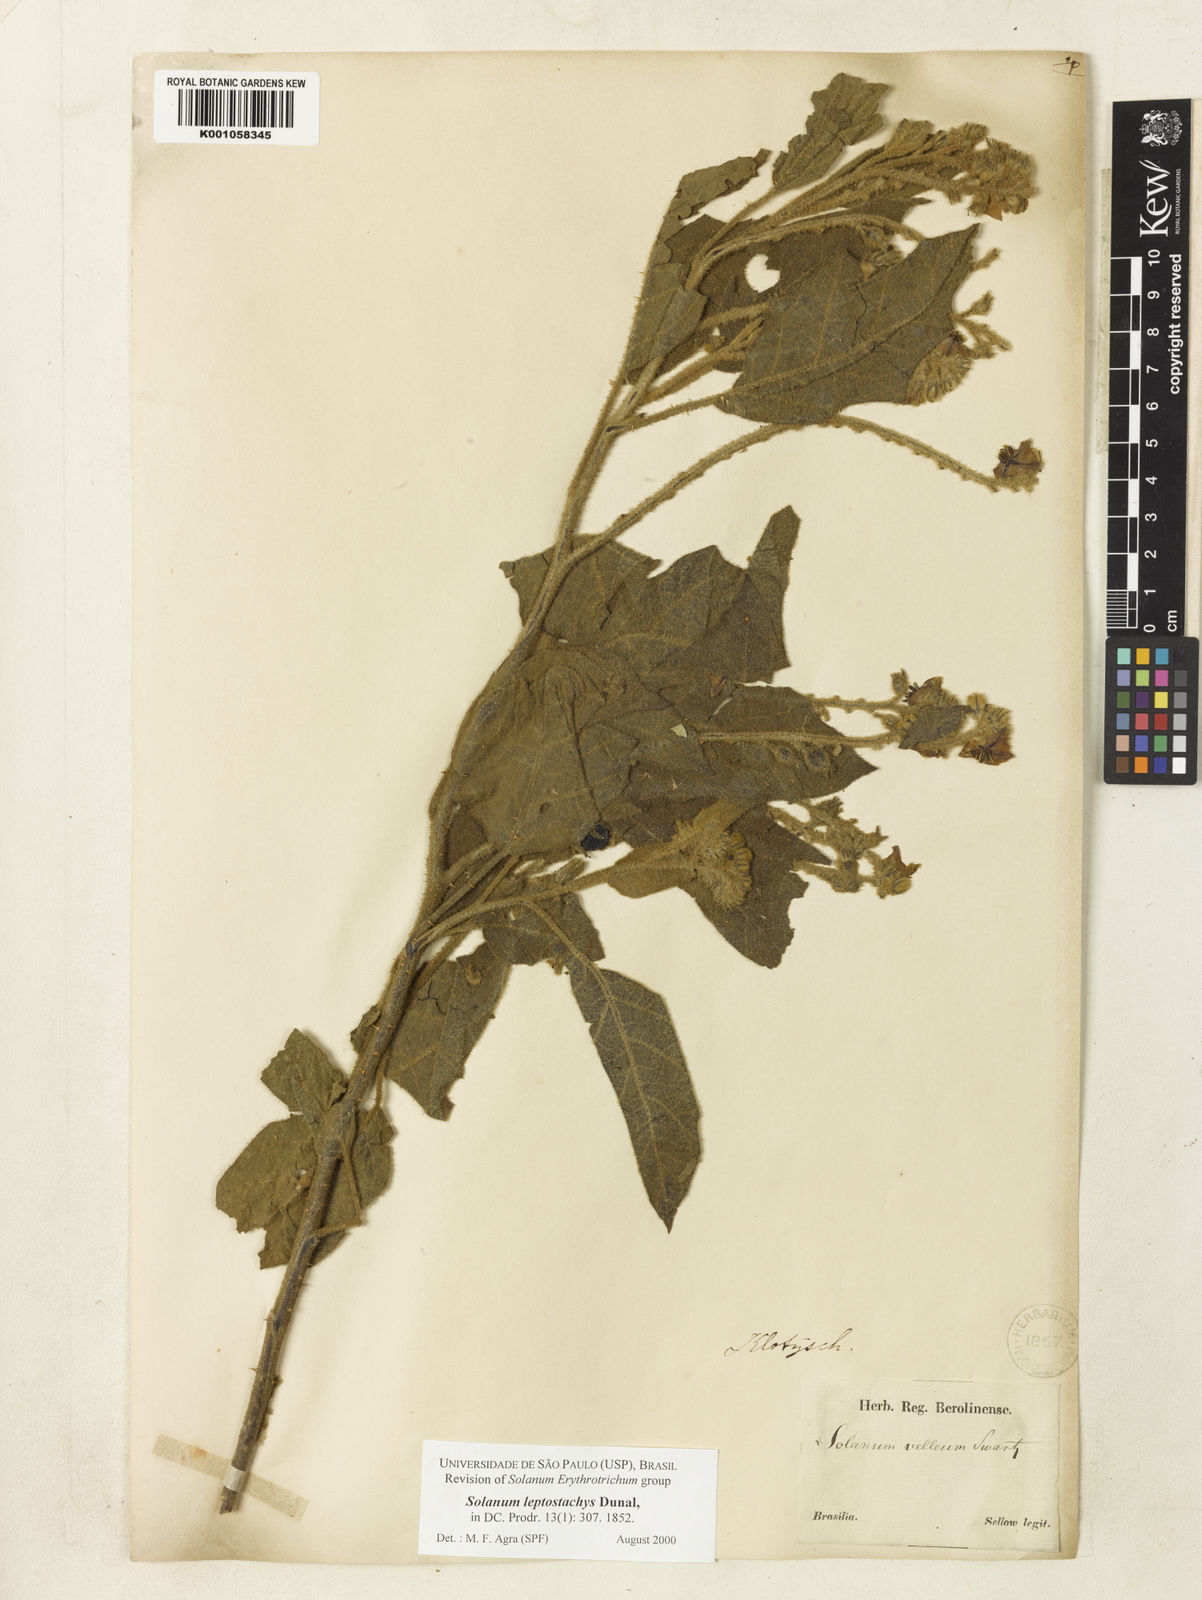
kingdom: Plantae
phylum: Tracheophyta
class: Magnoliopsida
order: Solanales
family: Solanaceae
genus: Solanum
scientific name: Solanum leptostachys
